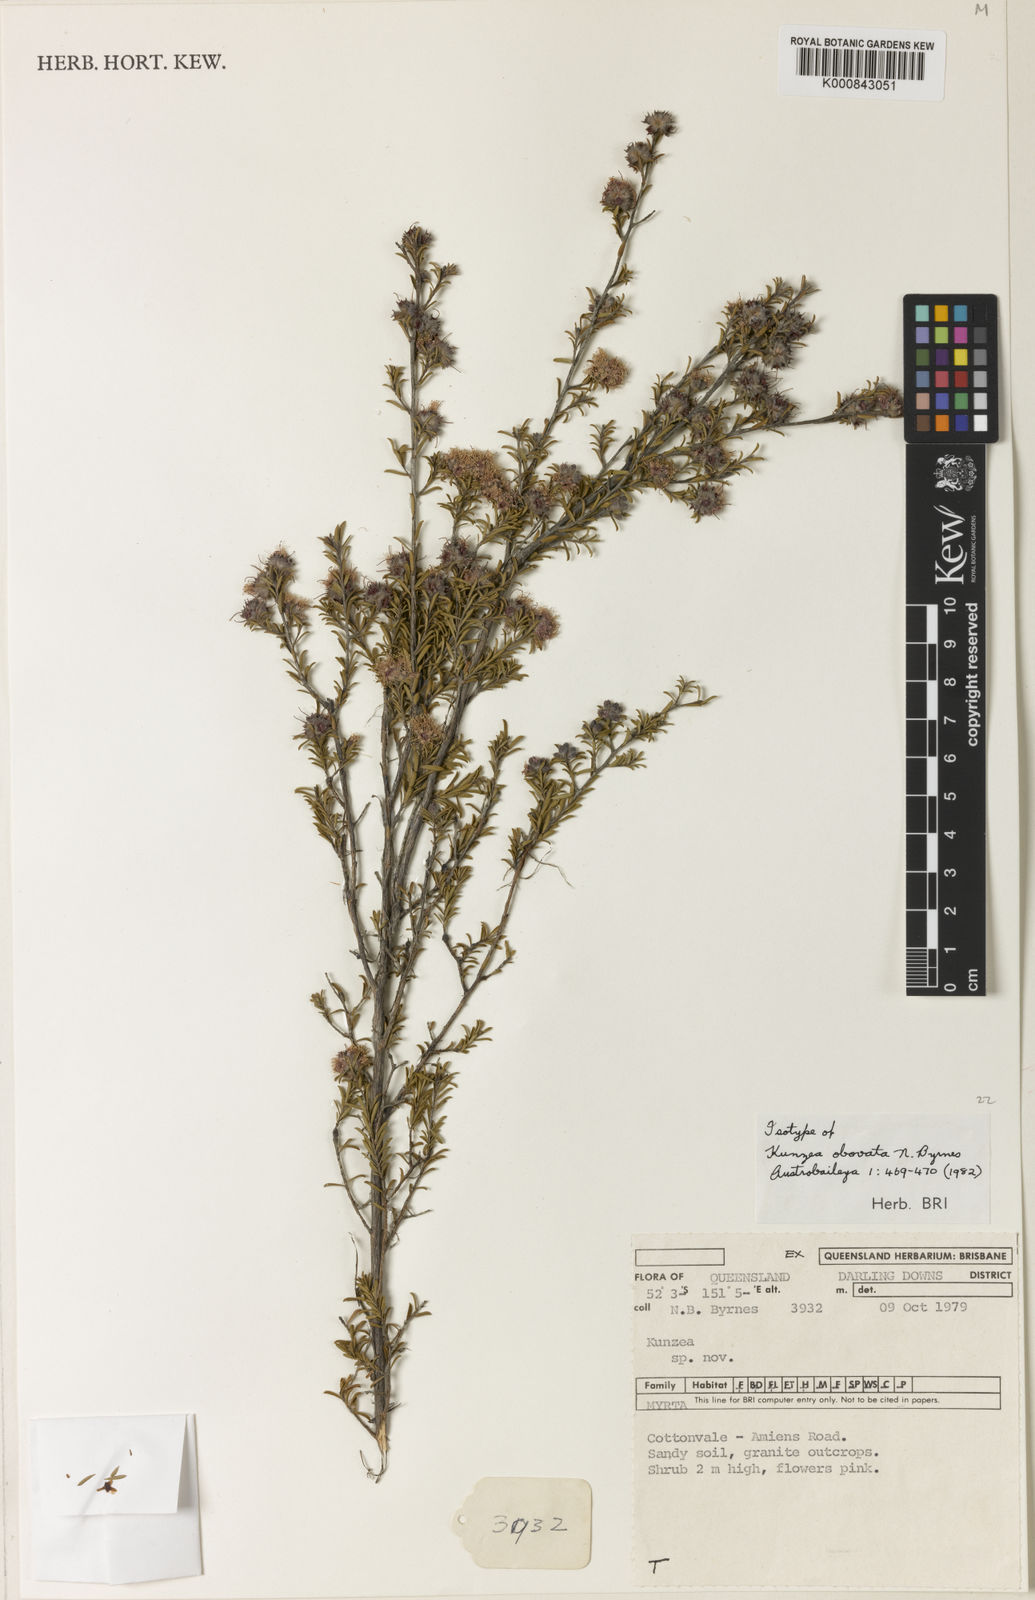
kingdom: Plantae
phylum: Tracheophyta
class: Magnoliopsida
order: Myrtales
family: Myrtaceae
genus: Kunzea
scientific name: Kunzea obovata
